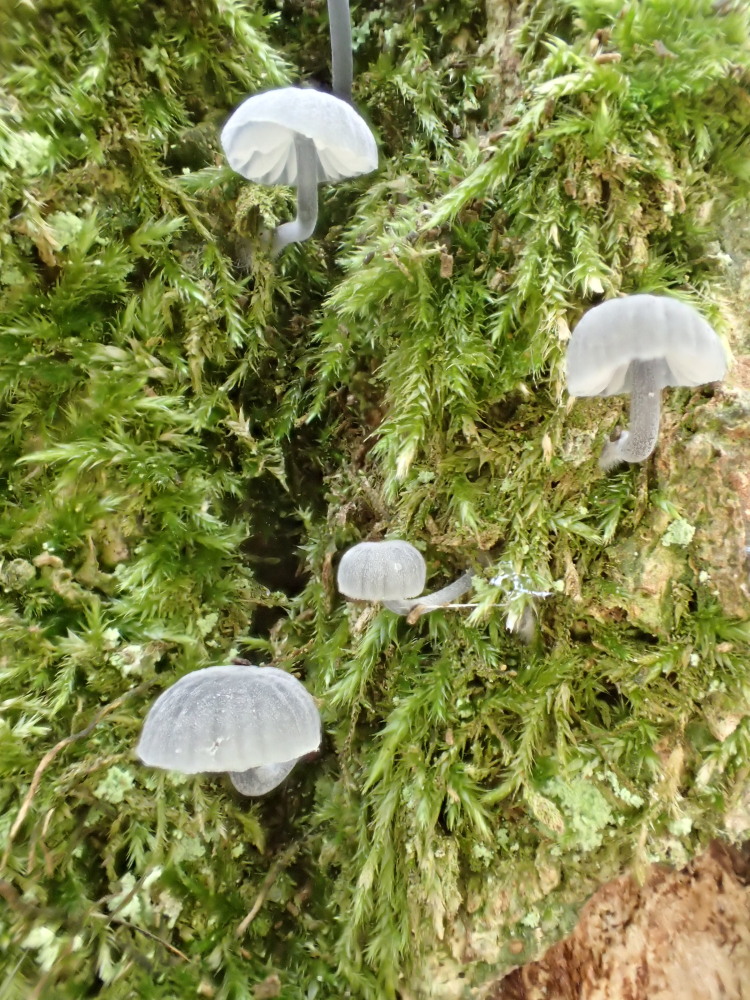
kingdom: Fungi
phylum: Basidiomycota
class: Agaricomycetes
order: Agaricales
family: Mycenaceae
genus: Mycena
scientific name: Mycena pseudocorticola
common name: gråblå bark-huesvamp
